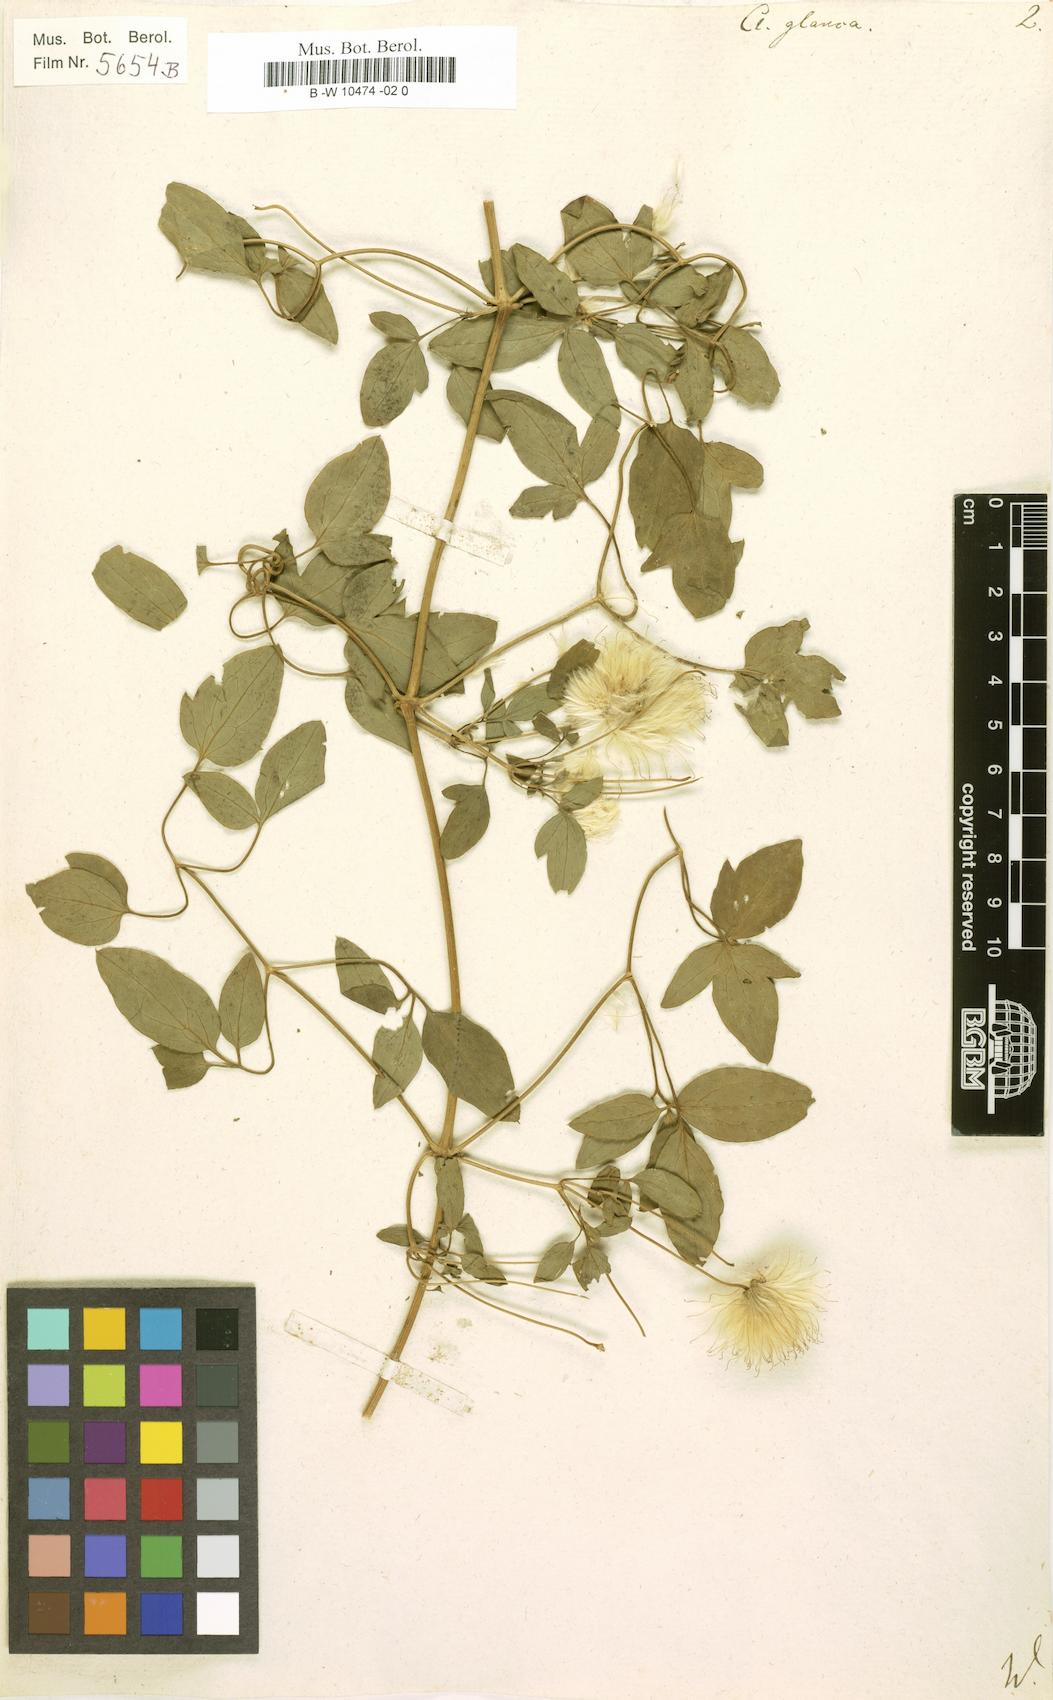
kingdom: Plantae
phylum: Tracheophyta
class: Magnoliopsida
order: Ranunculales
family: Ranunculaceae
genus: Clematis
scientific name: Clematis glauca
